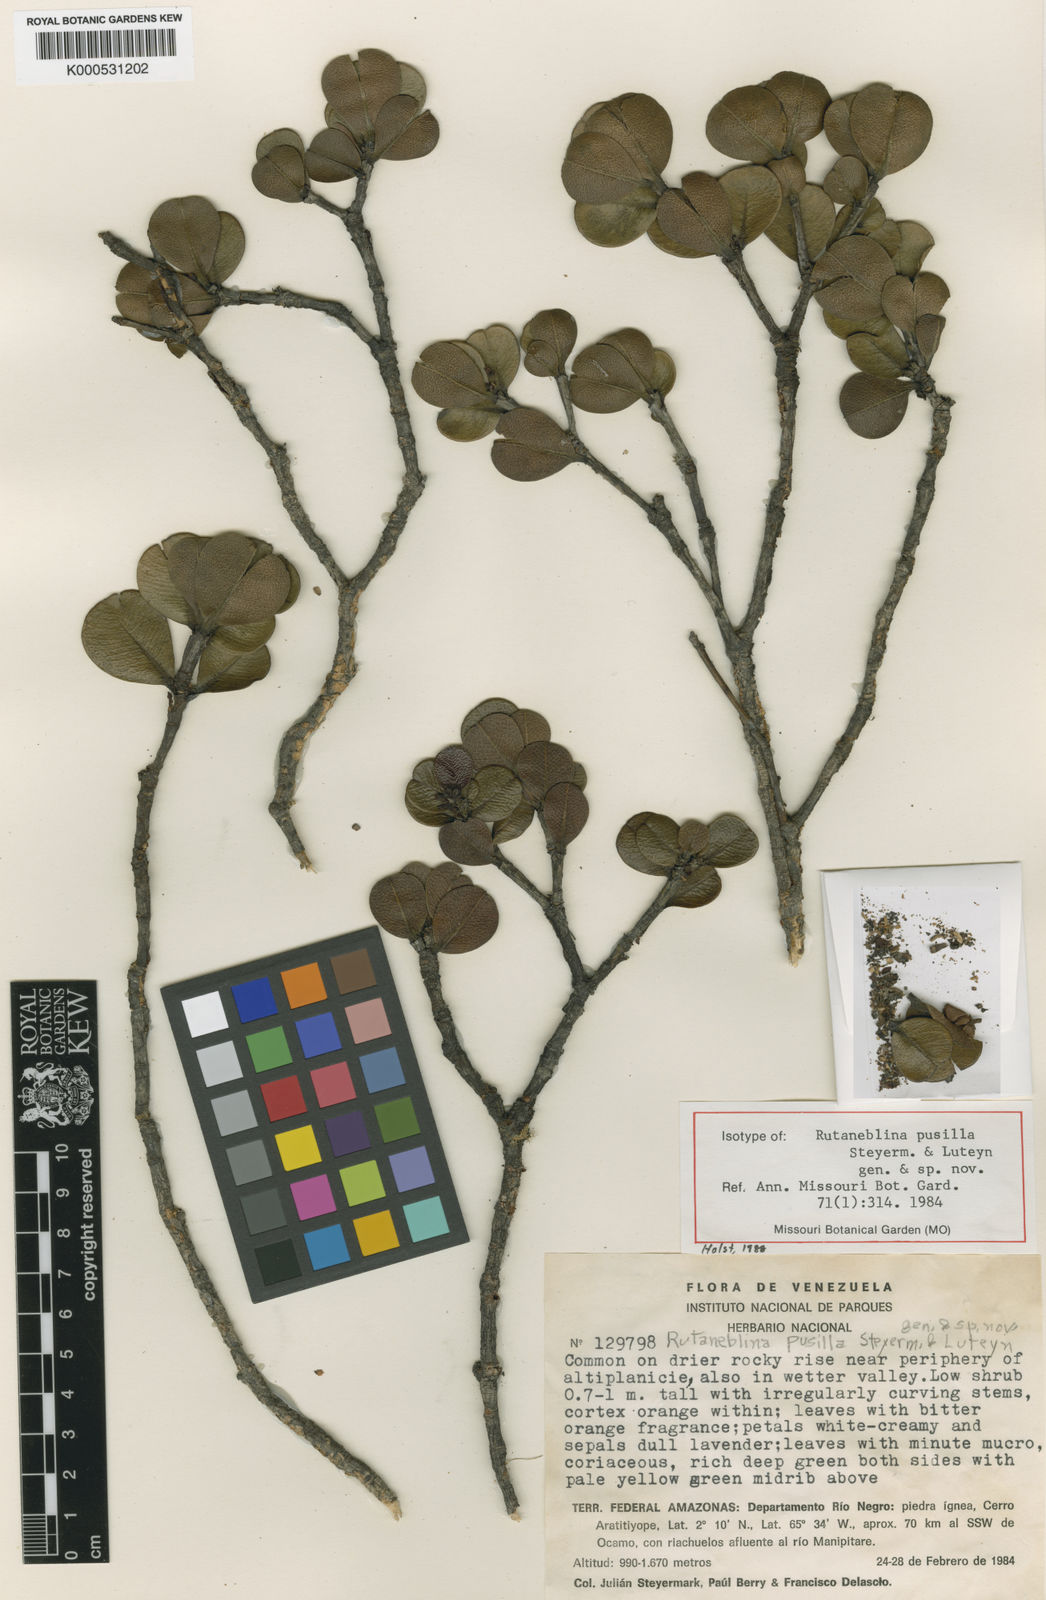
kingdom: Plantae
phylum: Tracheophyta
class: Magnoliopsida
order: Sapindales
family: Rutaceae
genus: Rutaneblina
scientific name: Rutaneblina pusilla
